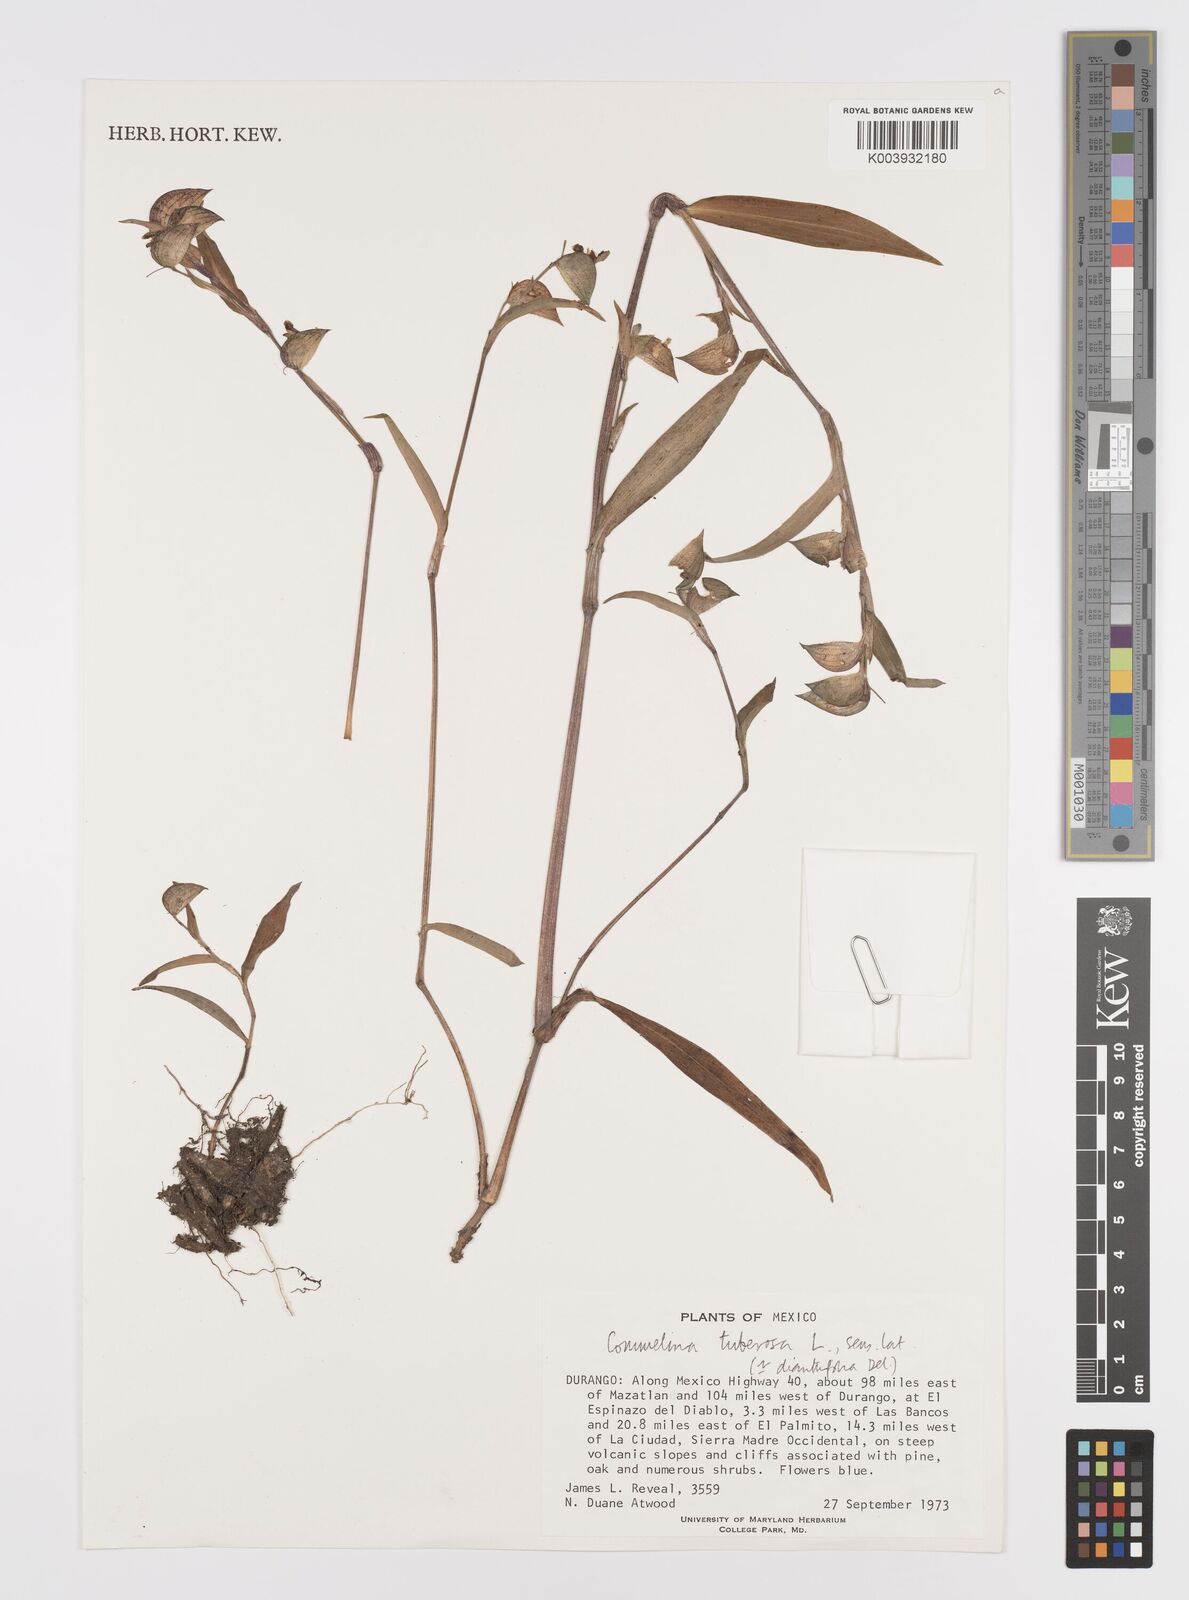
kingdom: Plantae
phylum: Tracheophyta
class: Liliopsida
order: Commelinales
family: Commelinaceae
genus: Commelina
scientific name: Commelina dianthifolia
